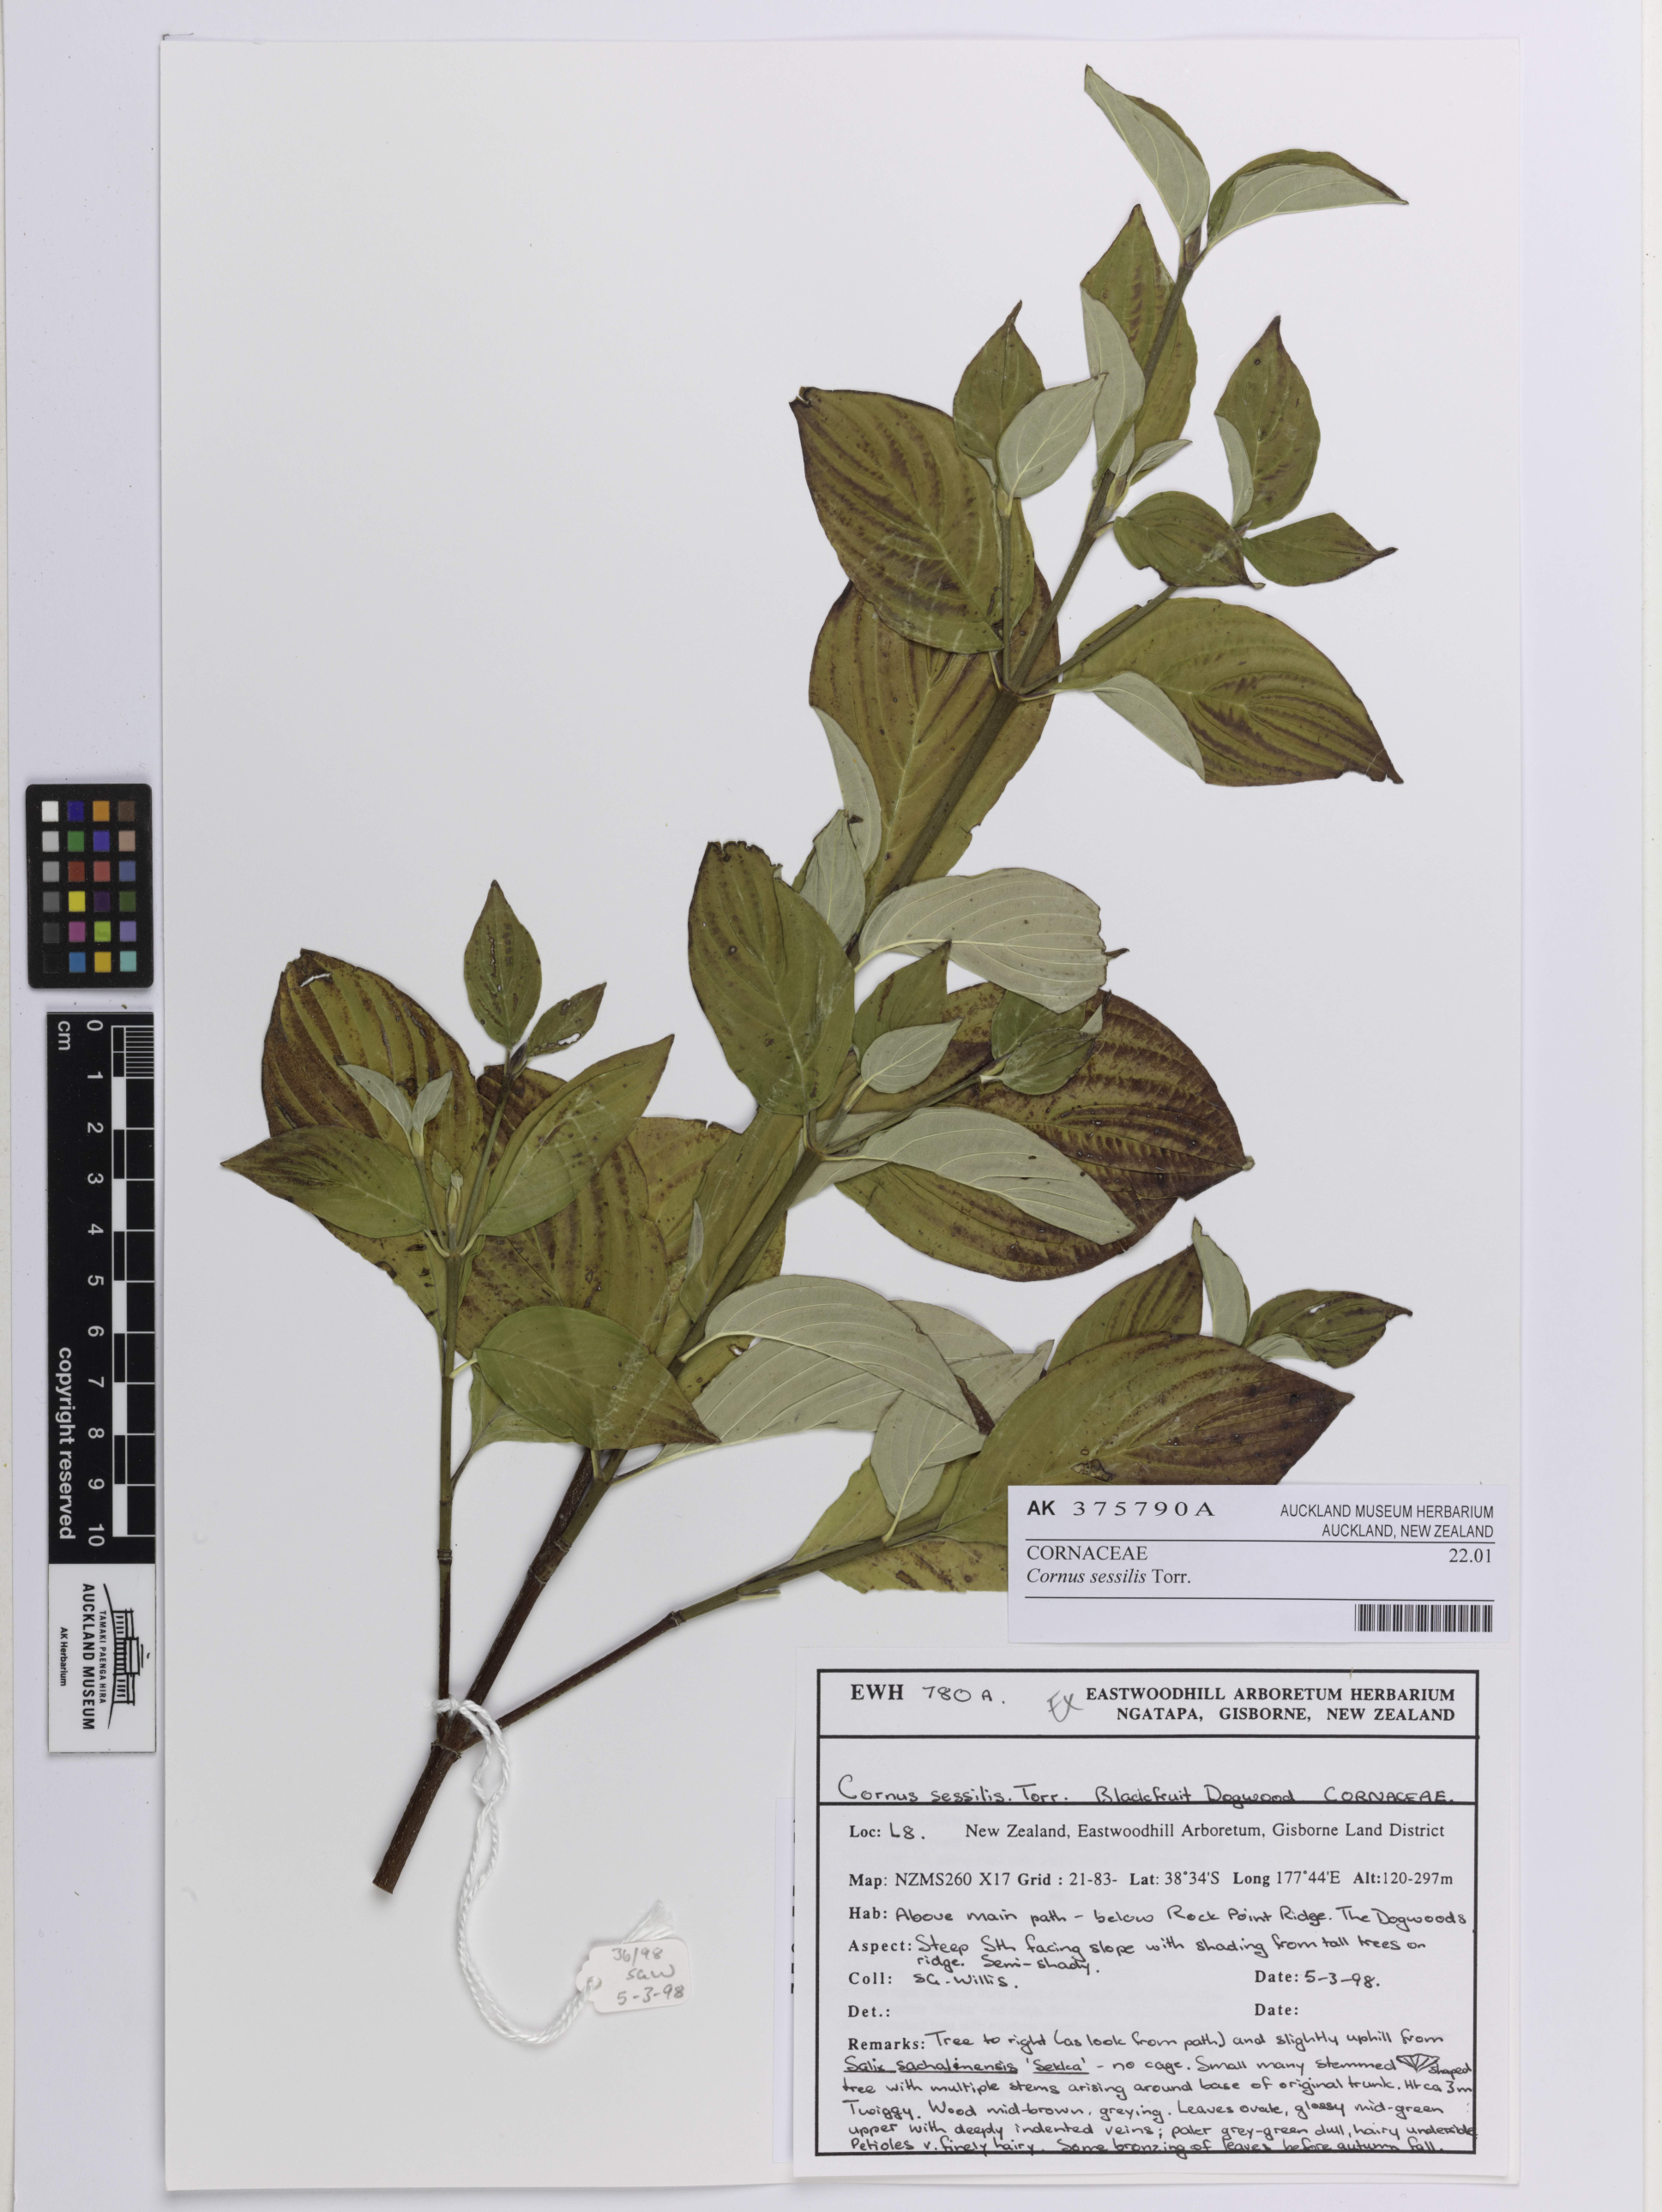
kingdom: Plantae
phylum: Tracheophyta
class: Magnoliopsida
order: Cornales
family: Cornaceae
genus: Cornus
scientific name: Cornus sessilis
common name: Blackfruit dogwood
